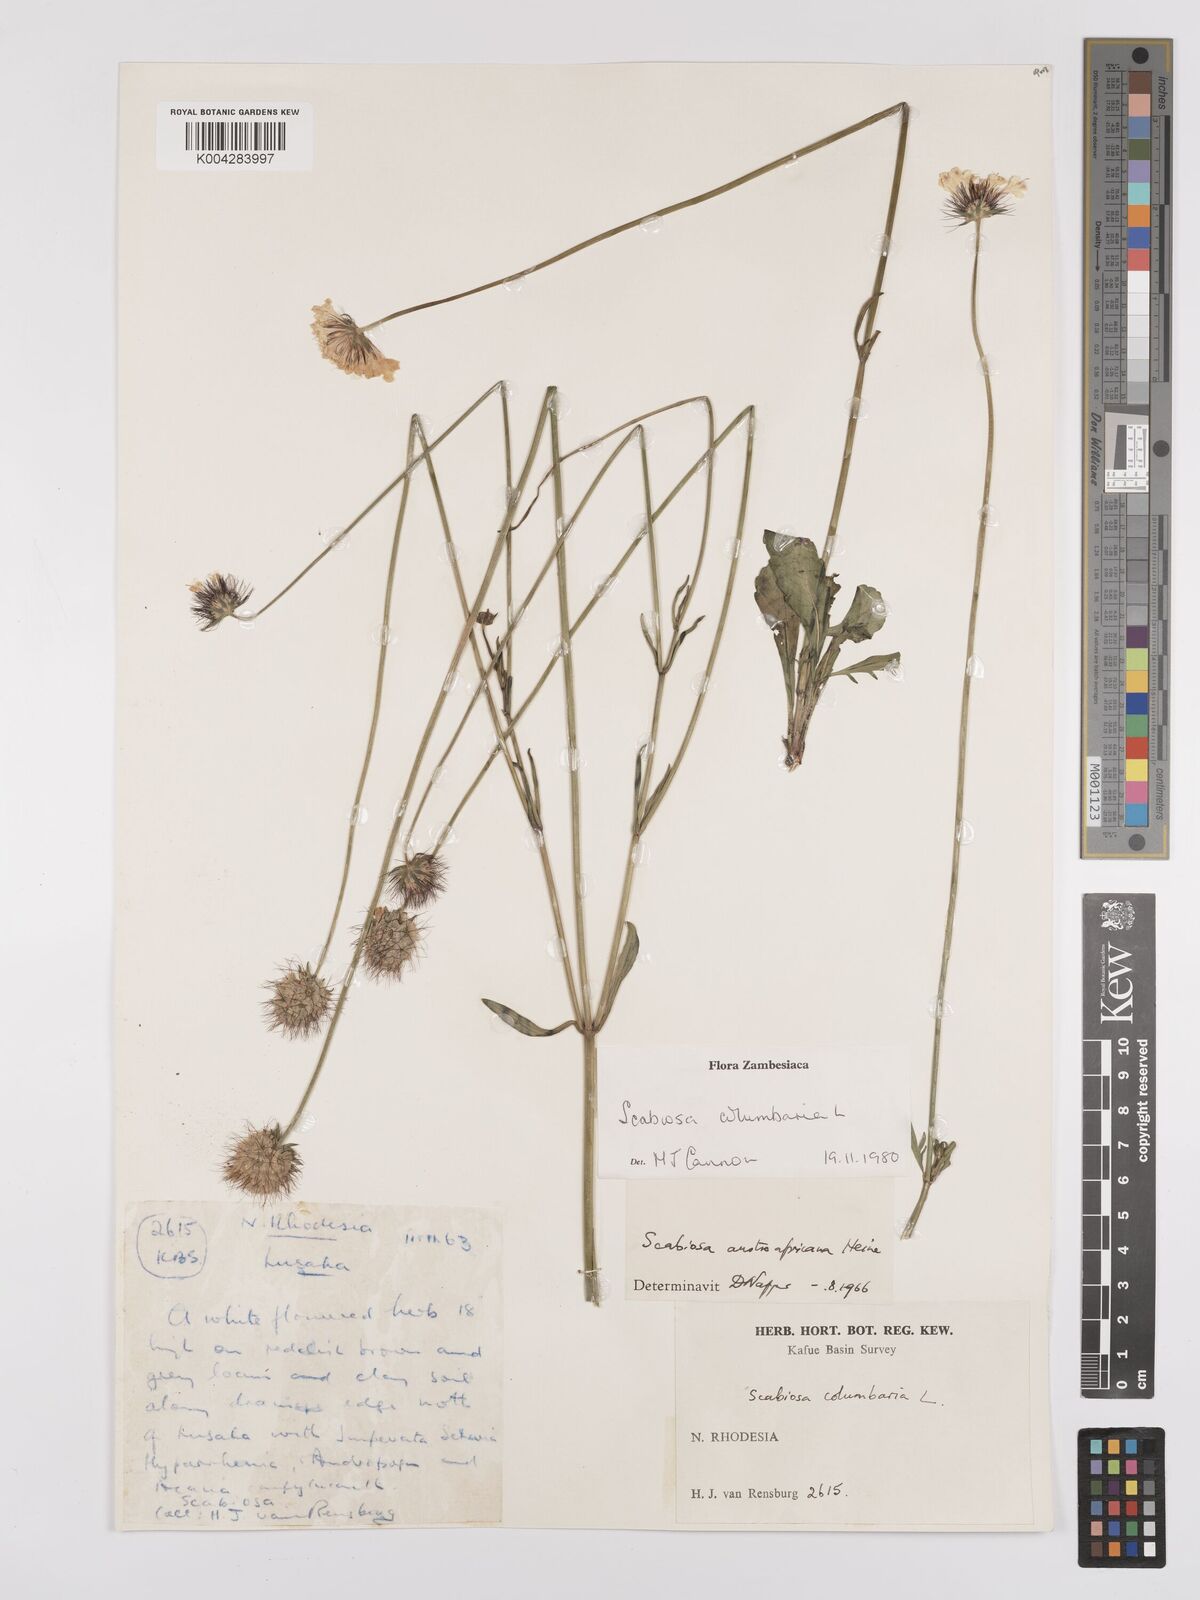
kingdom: Plantae
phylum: Tracheophyta
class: Magnoliopsida
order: Dipsacales
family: Caprifoliaceae
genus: Scabiosa
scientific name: Scabiosa austroafricana
